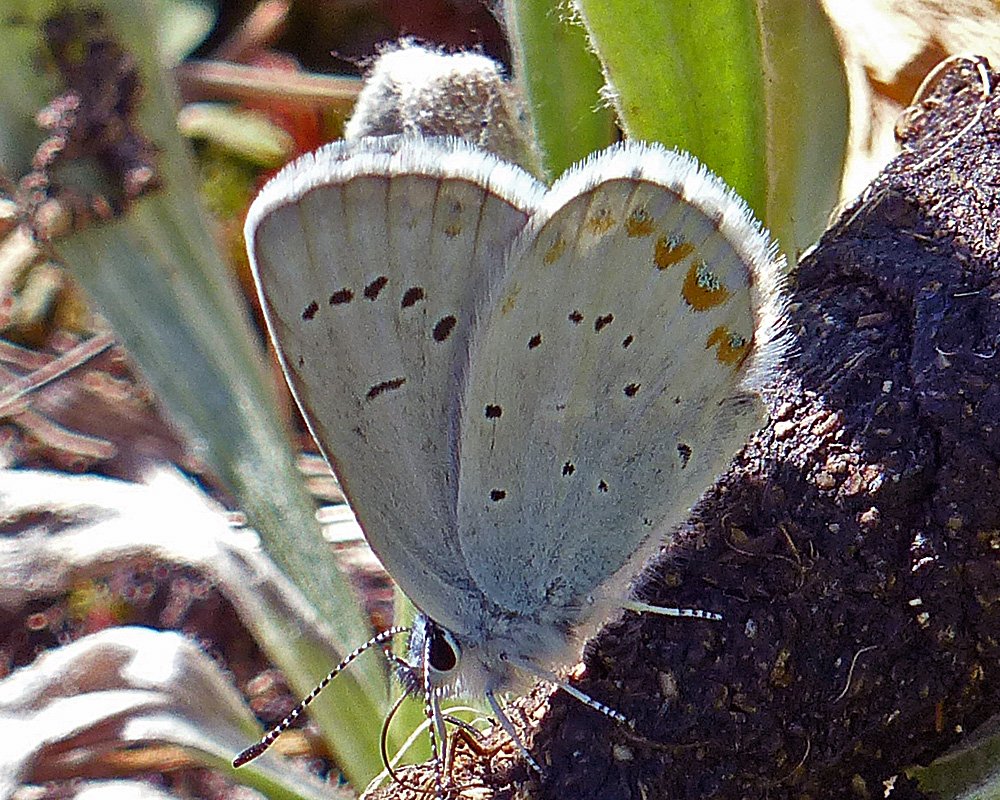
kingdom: Animalia
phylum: Arthropoda
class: Insecta
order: Lepidoptera
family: Lycaenidae
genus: Lycaeides
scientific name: Lycaeides anna
